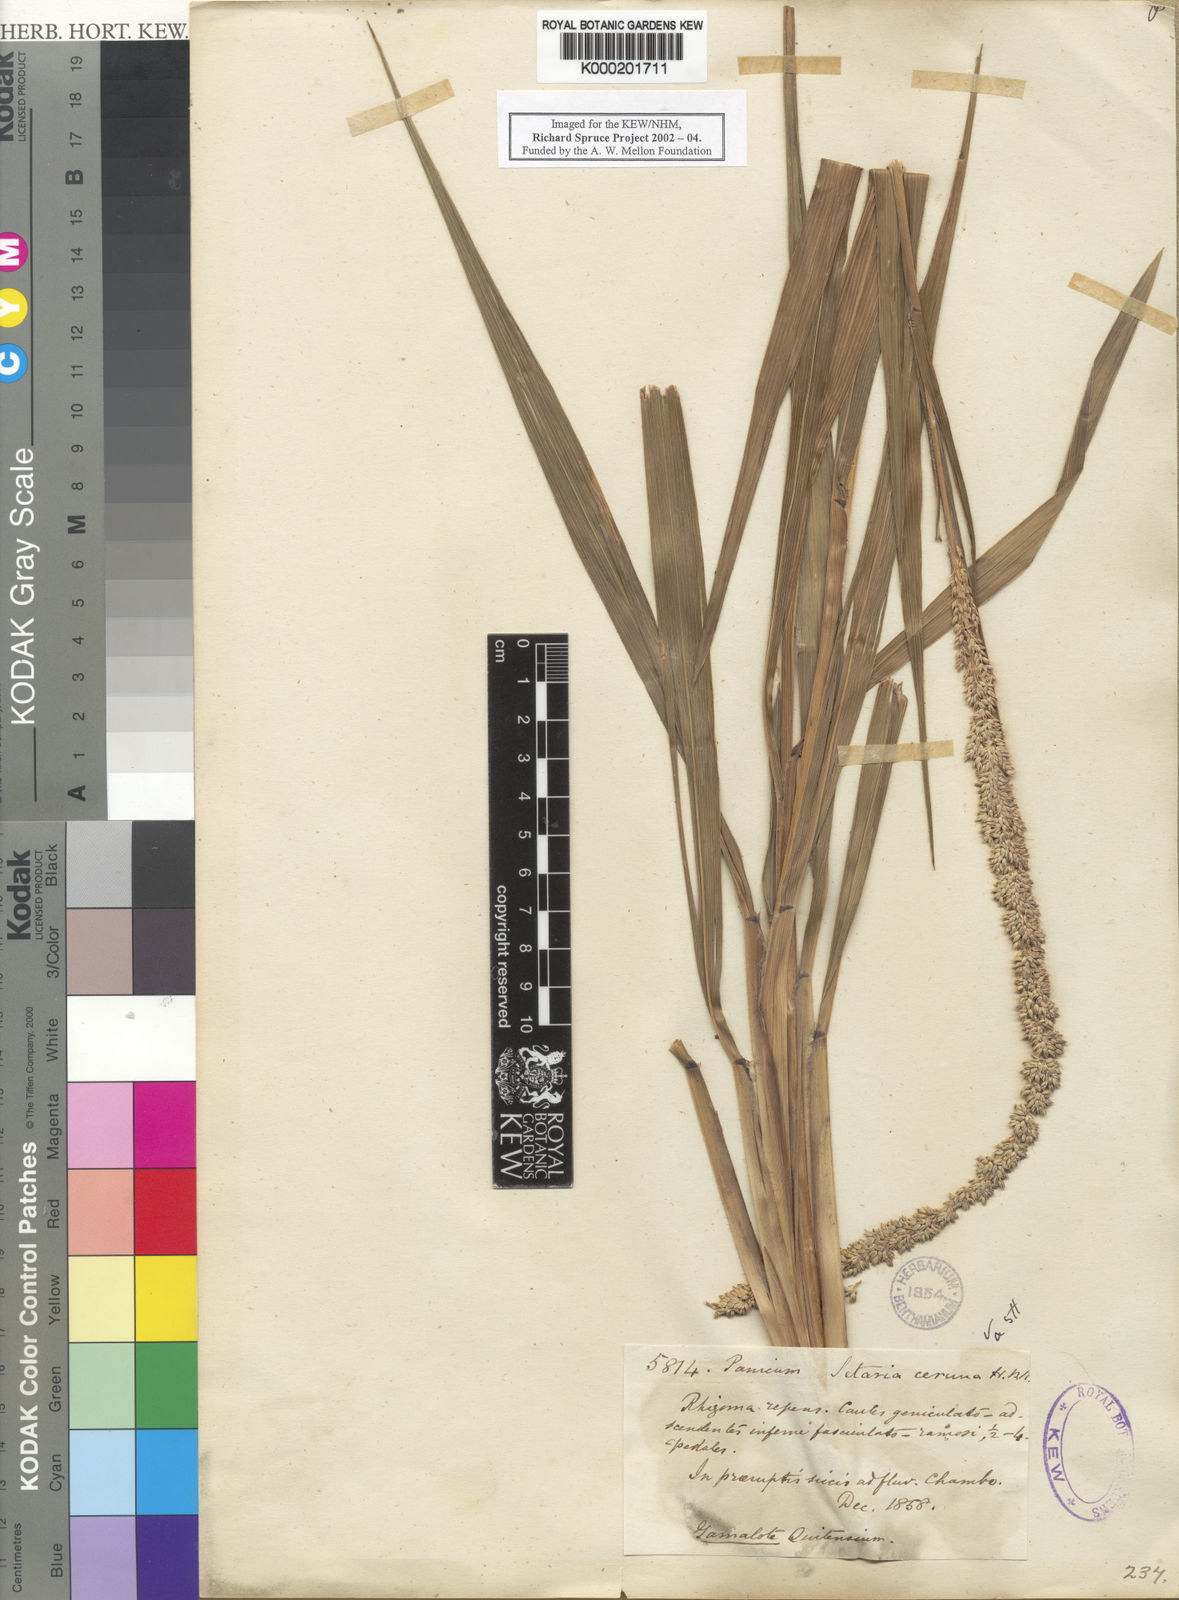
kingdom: Plantae
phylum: Tracheophyta
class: Liliopsida
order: Poales
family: Poaceae
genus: Setaria
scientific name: Setaria cernua
